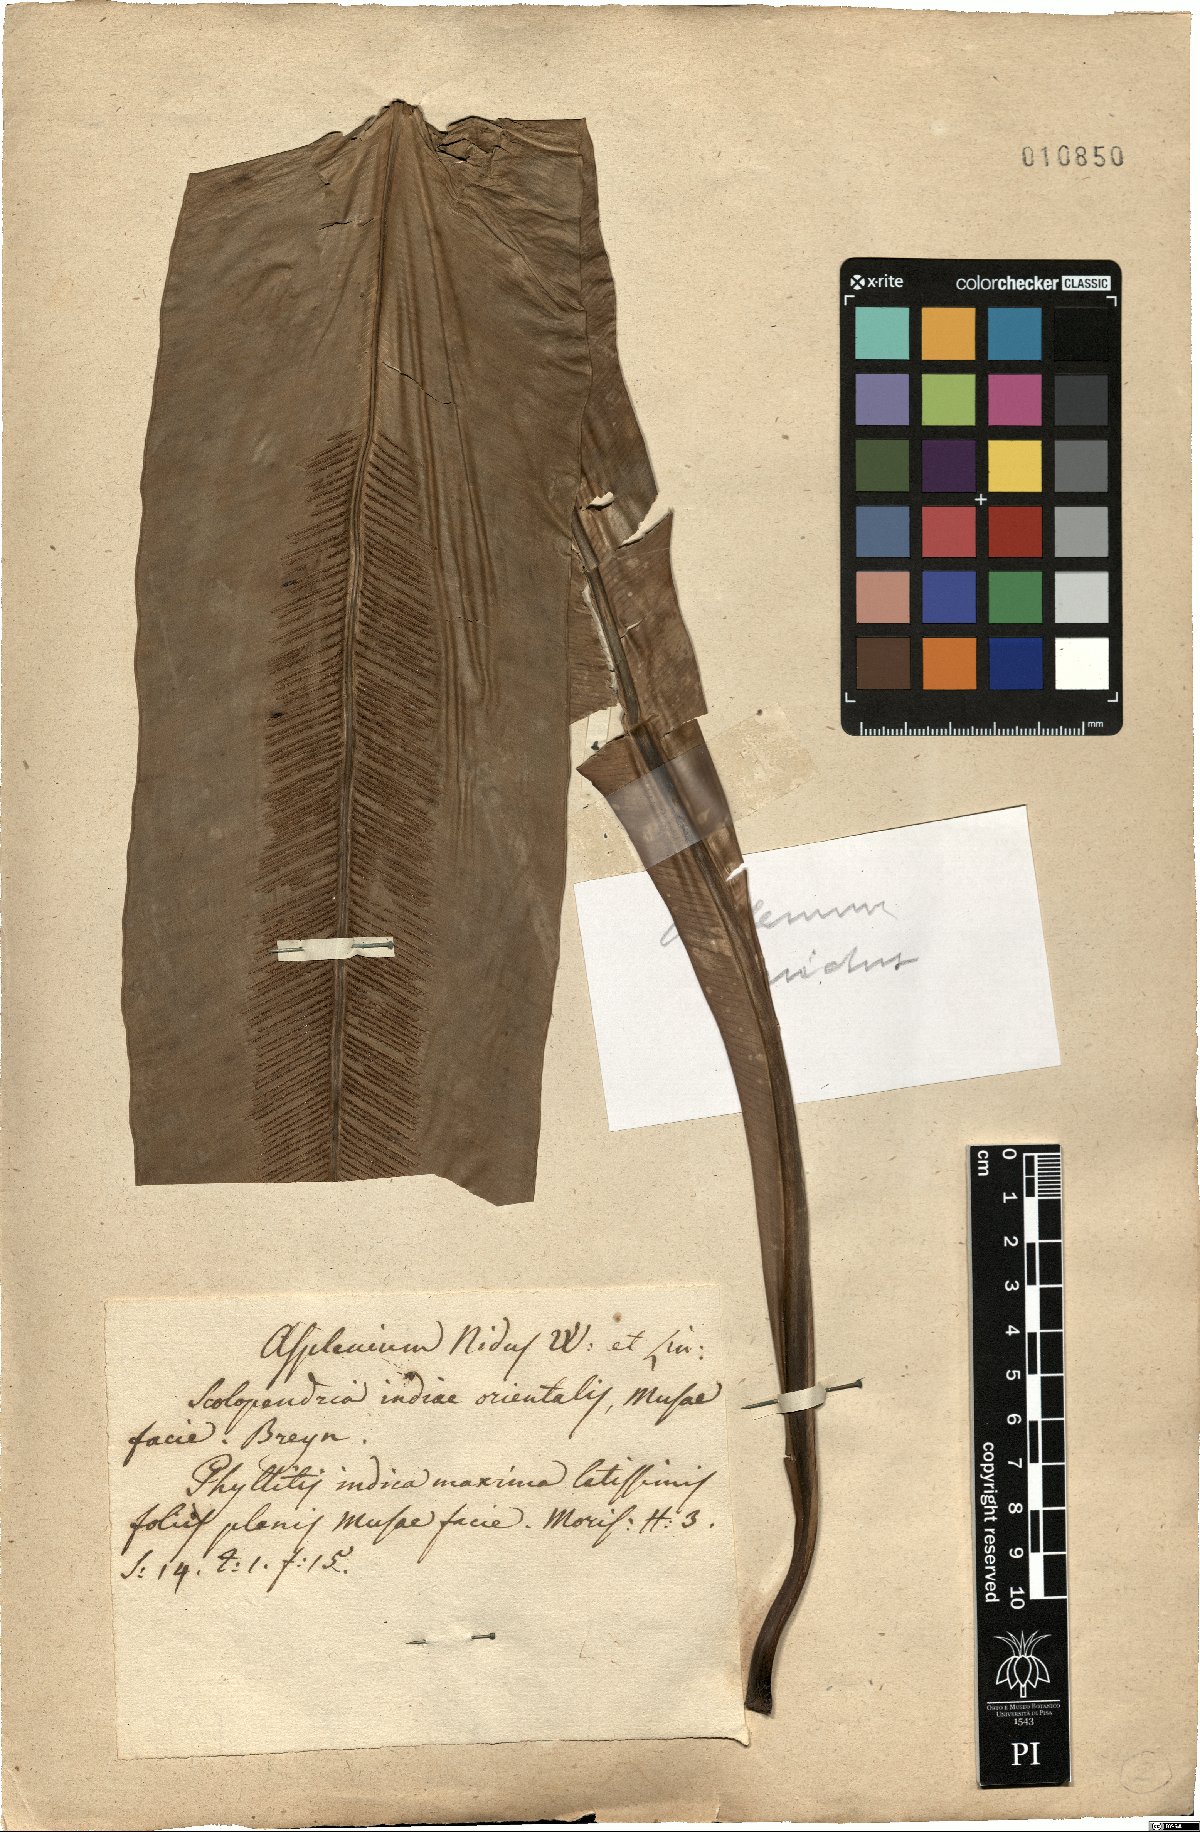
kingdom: Plantae
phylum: Tracheophyta
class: Polypodiopsida
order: Polypodiales
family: Aspleniaceae
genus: Asplenium
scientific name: Asplenium nidus
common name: Bird's-nest fern
